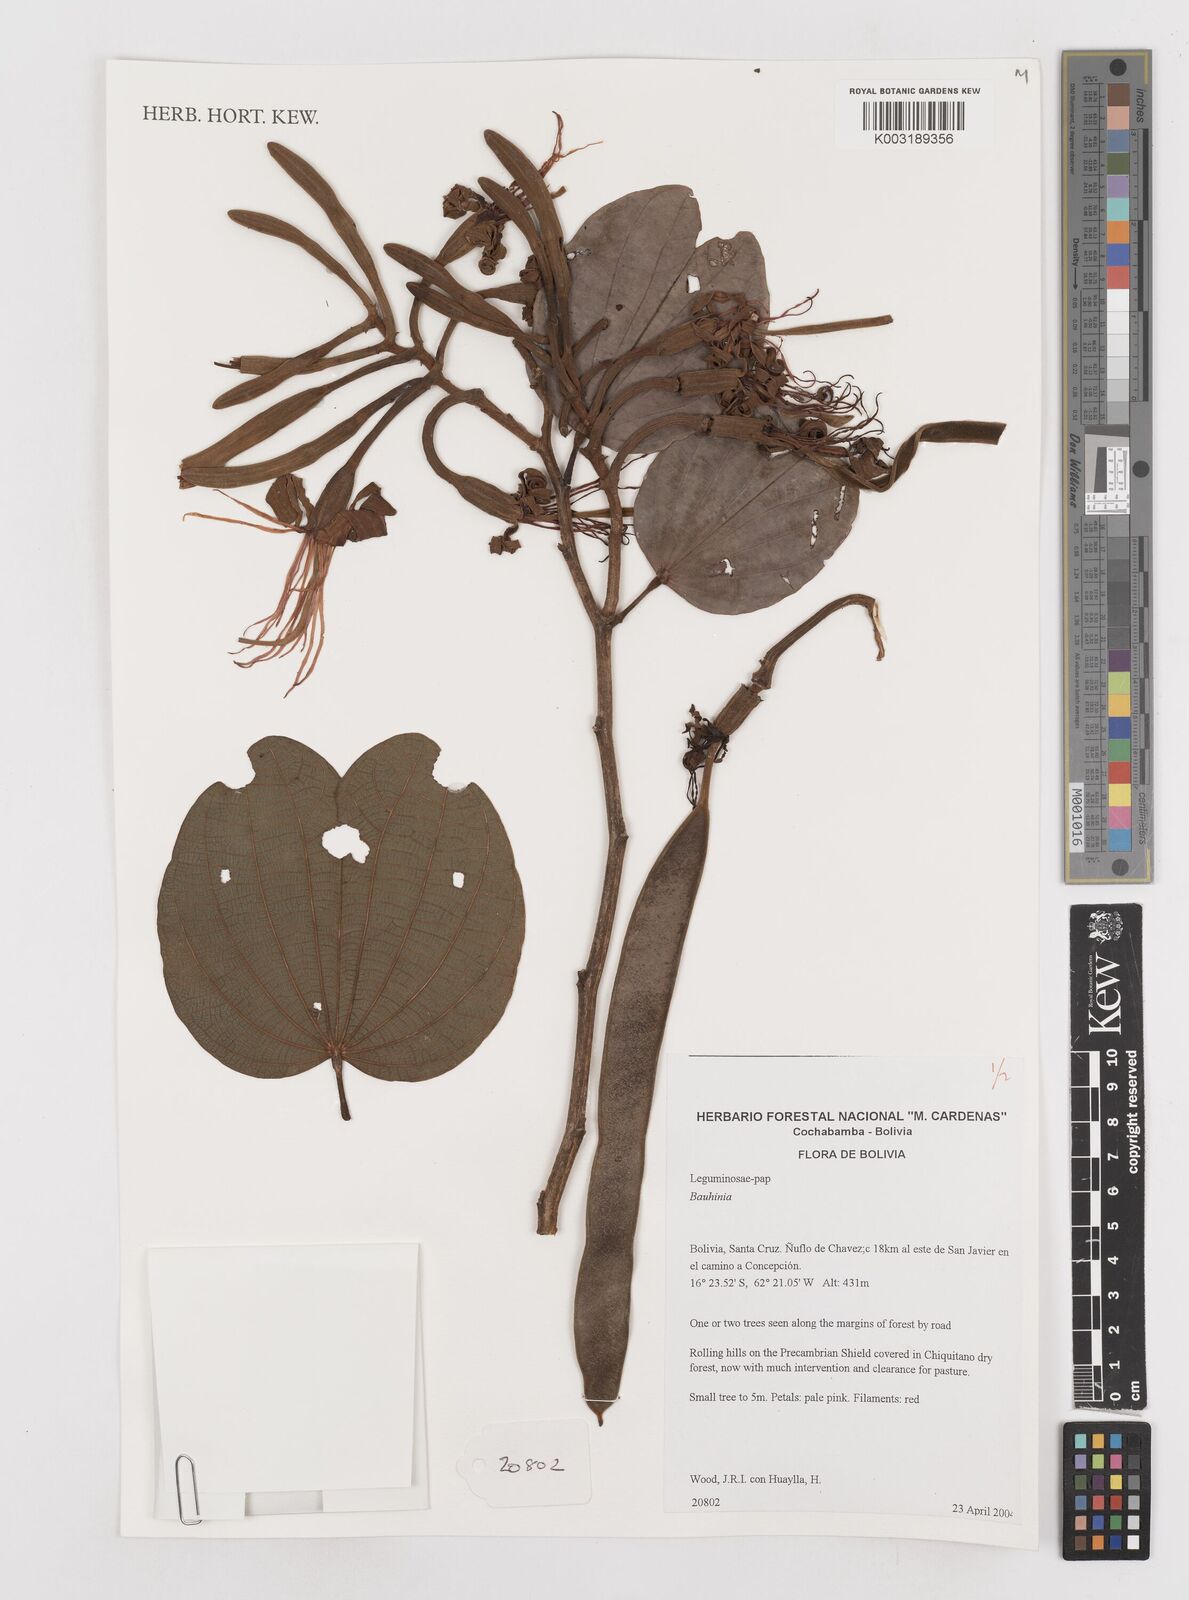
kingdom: Plantae
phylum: Tracheophyta
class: Magnoliopsida
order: Fabales
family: Fabaceae
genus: Bauhinia
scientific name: Bauhinia
